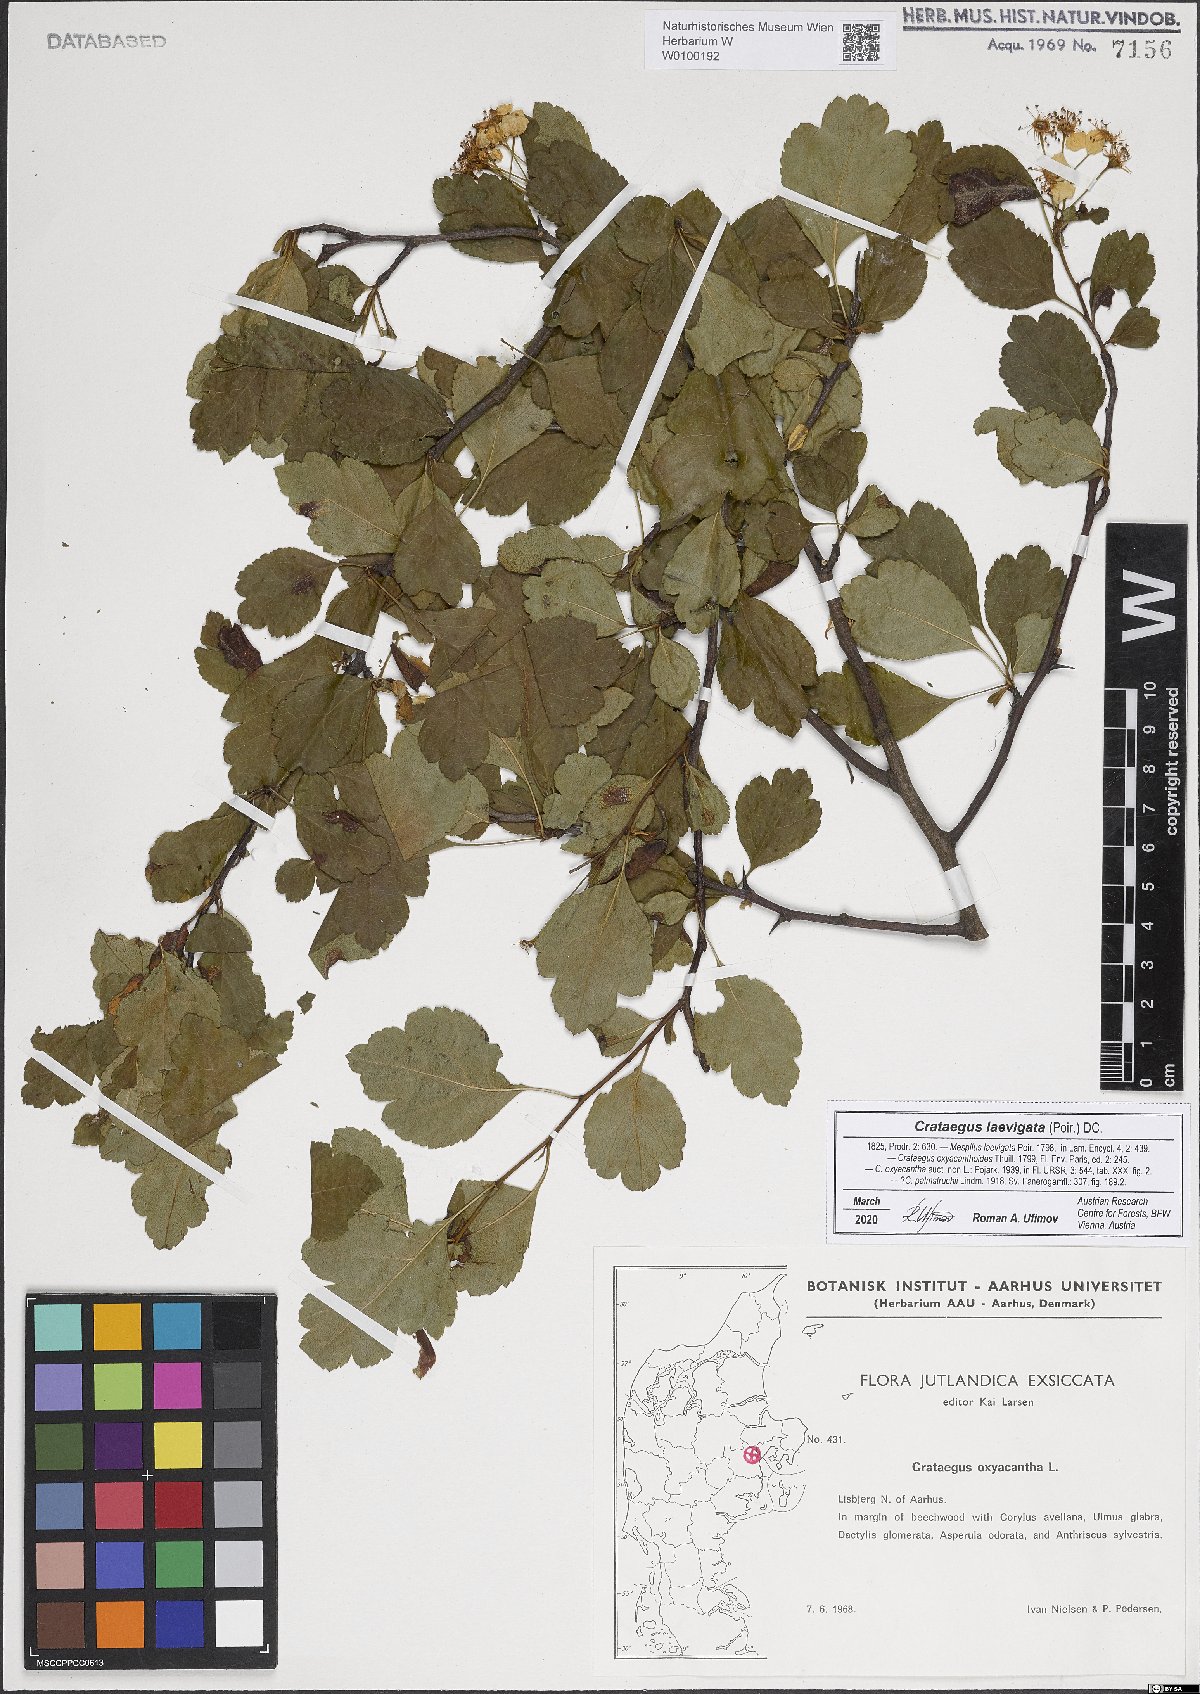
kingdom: Plantae
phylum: Tracheophyta
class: Magnoliopsida
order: Rosales
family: Rosaceae
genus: Crataegus
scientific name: Crataegus laevigata
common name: Midland hawthorn
